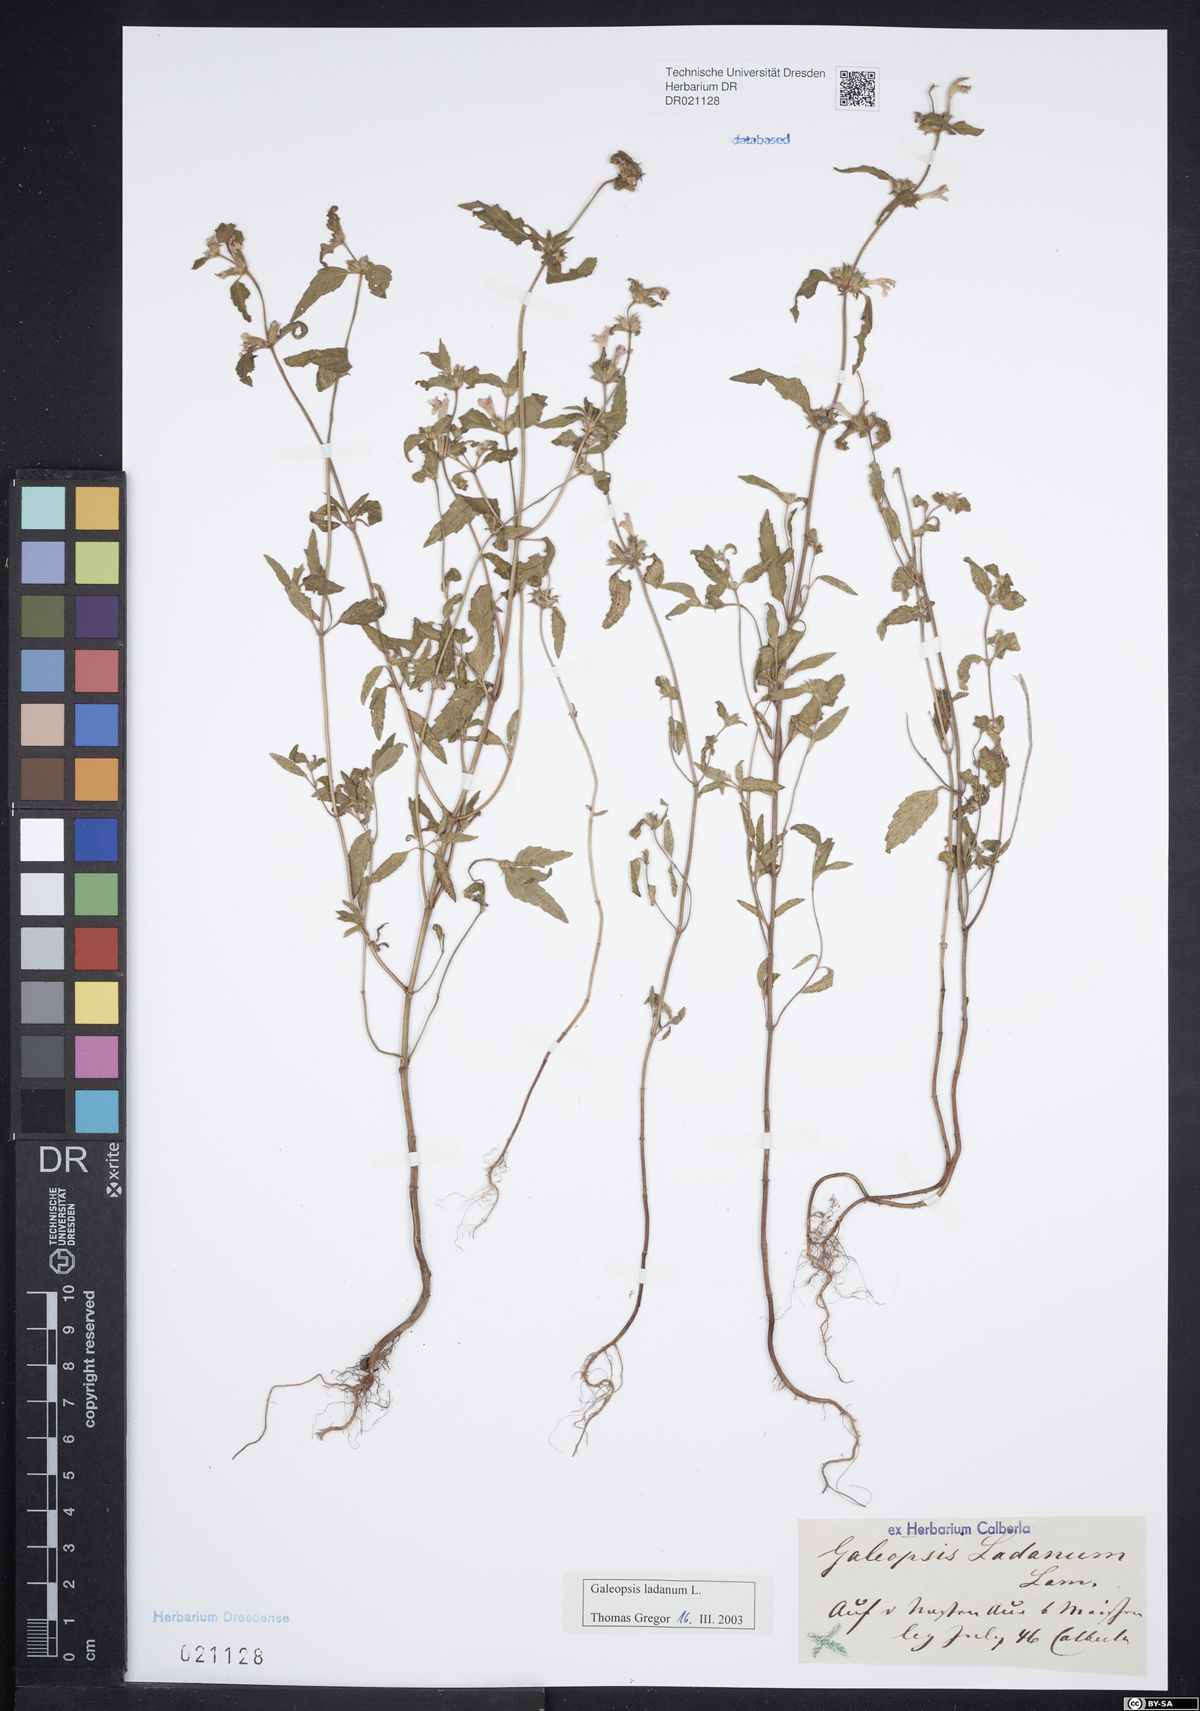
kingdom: Plantae
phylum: Tracheophyta
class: Magnoliopsida
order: Lamiales
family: Lamiaceae
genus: Galeopsis
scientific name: Galeopsis ladanum
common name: Broad-leaved hemp-nettle
